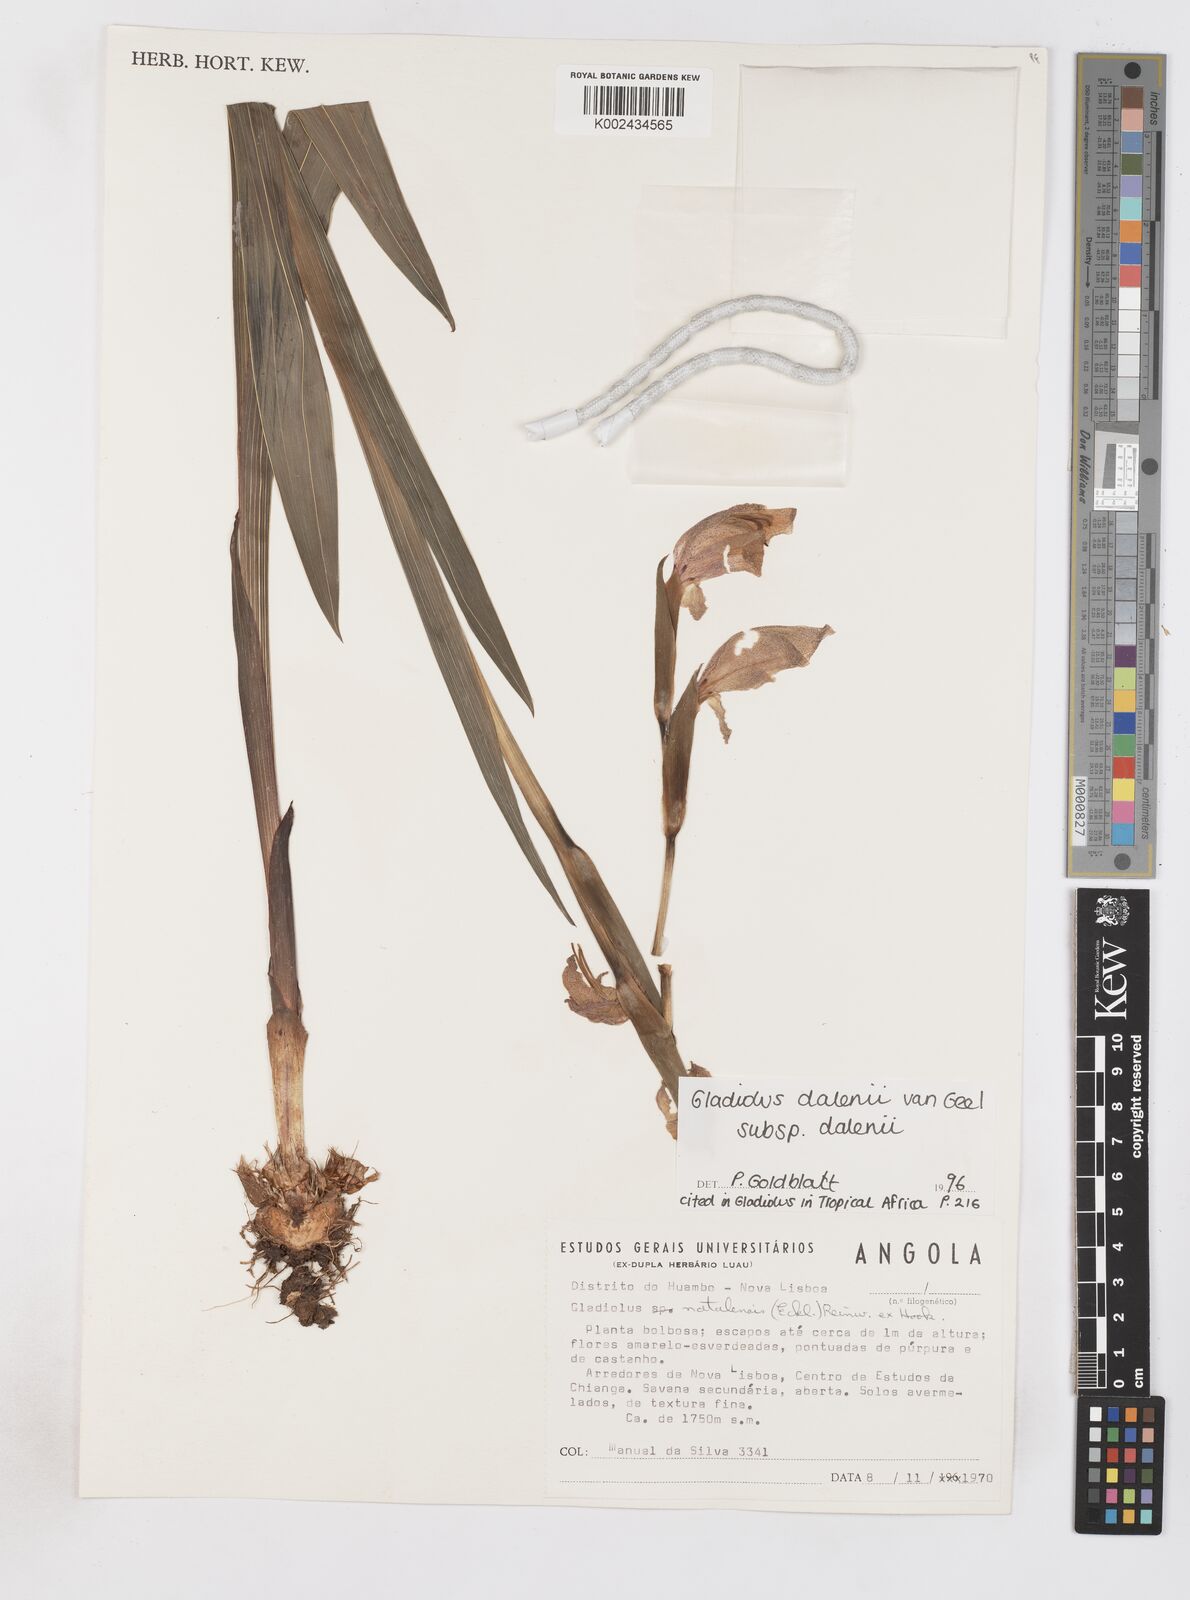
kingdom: Plantae
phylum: Tracheophyta
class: Liliopsida
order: Asparagales
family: Iridaceae
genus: Gladiolus
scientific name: Gladiolus dalenii
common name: Cornflag
